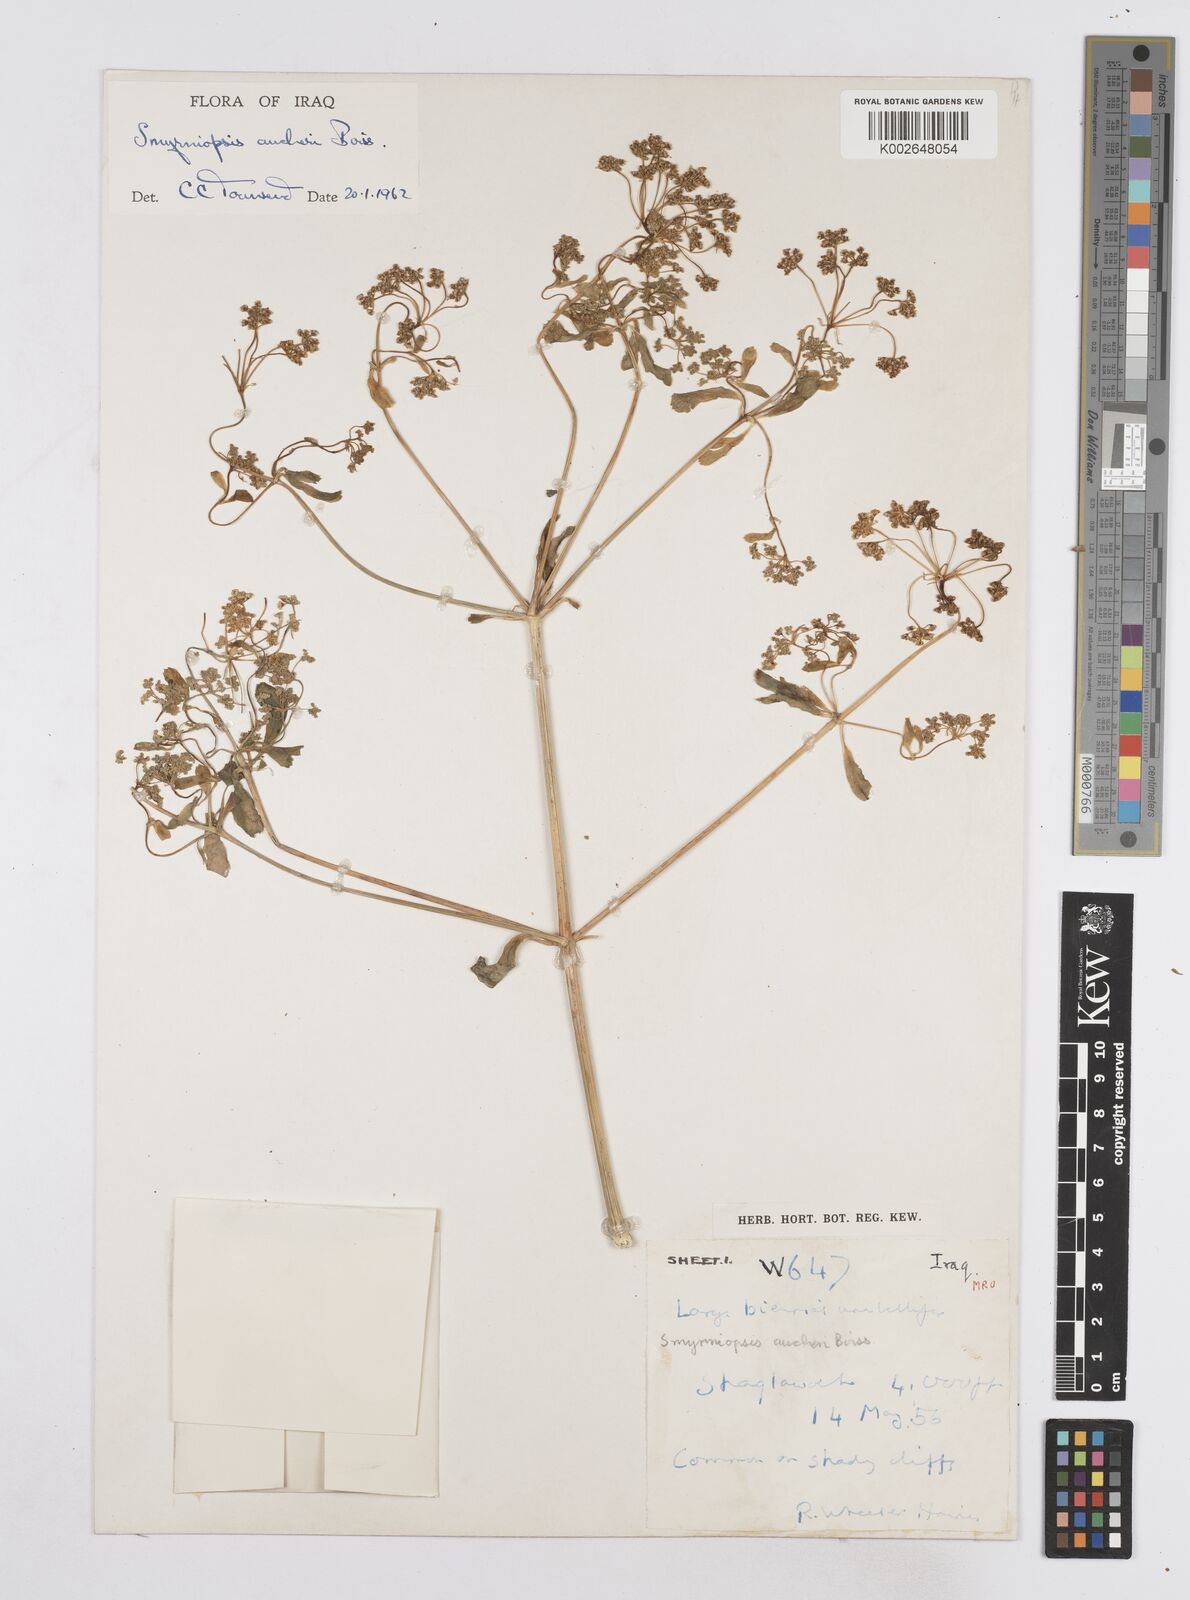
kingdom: Plantae
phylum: Tracheophyta
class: Magnoliopsida
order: Apiales
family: Apiaceae
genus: Smyrniopsis
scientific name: Smyrniopsis aucheri
